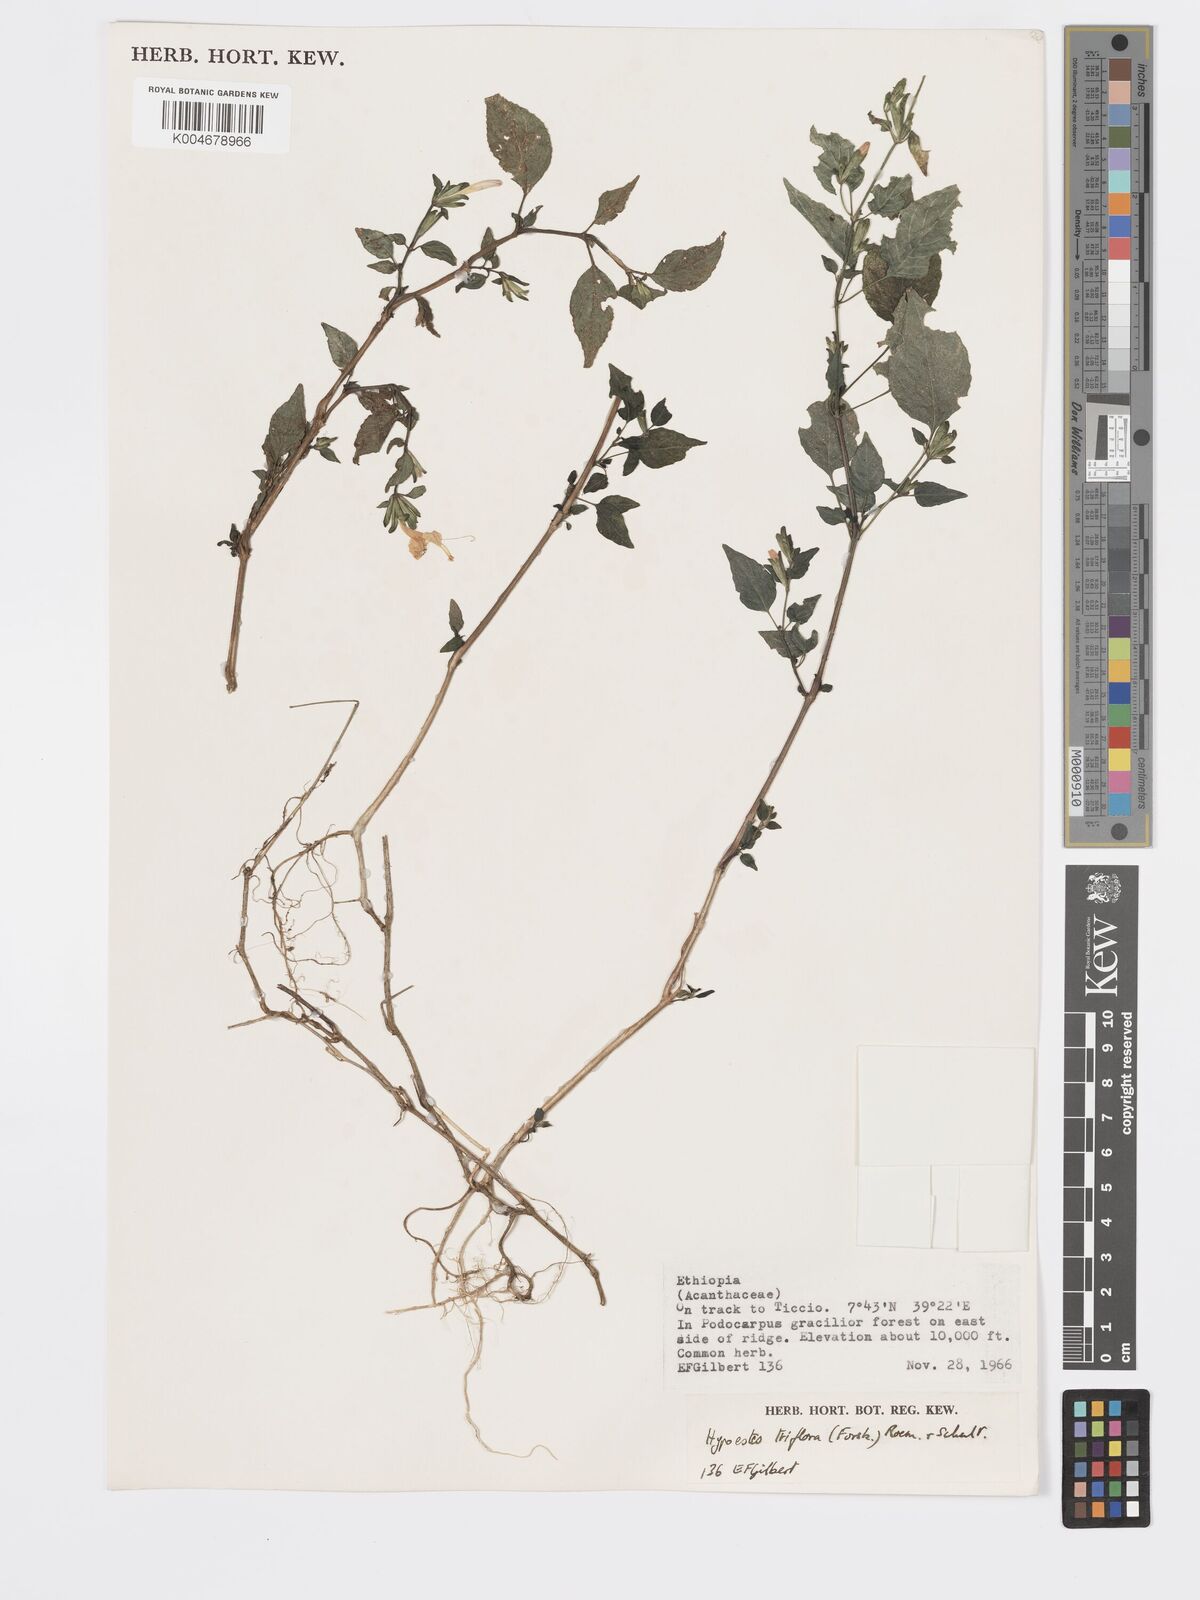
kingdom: Plantae
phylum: Tracheophyta
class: Magnoliopsida
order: Lamiales
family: Acanthaceae
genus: Hypoestes
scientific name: Hypoestes triflora
